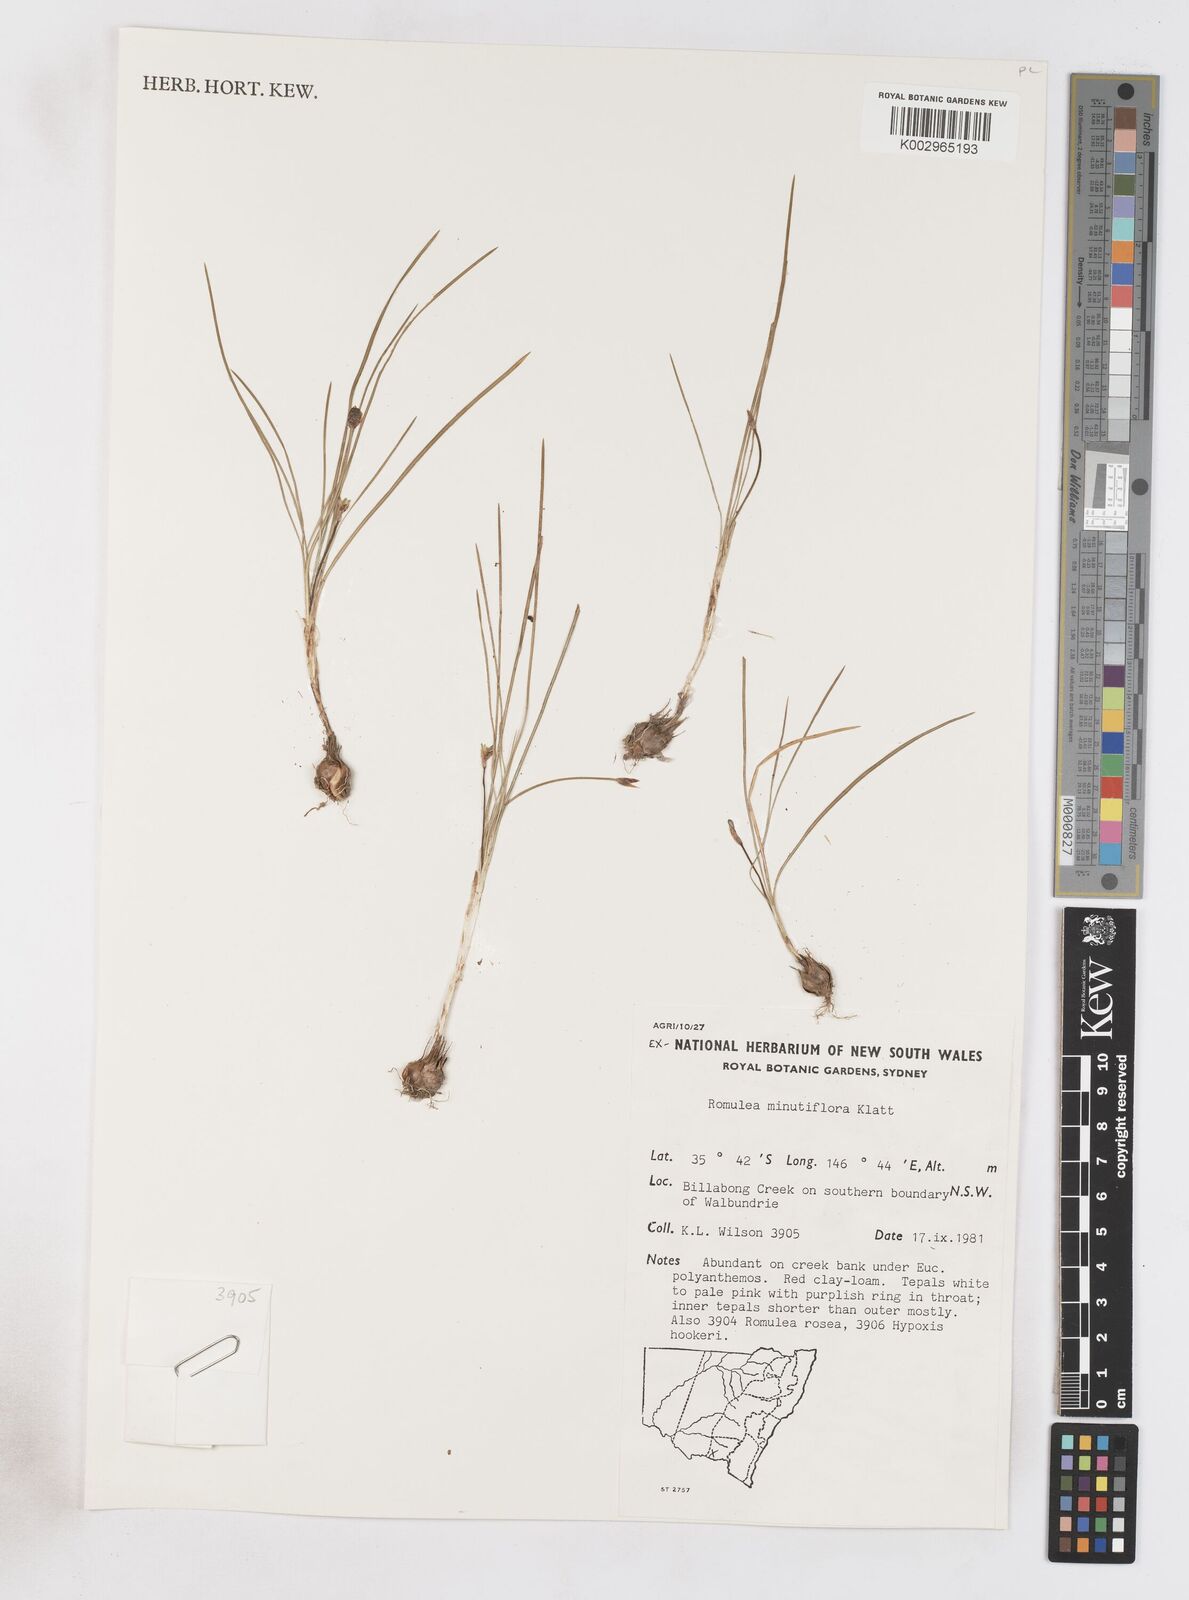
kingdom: Plantae
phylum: Tracheophyta
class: Liliopsida
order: Asparagales
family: Iridaceae
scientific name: Iridaceae
